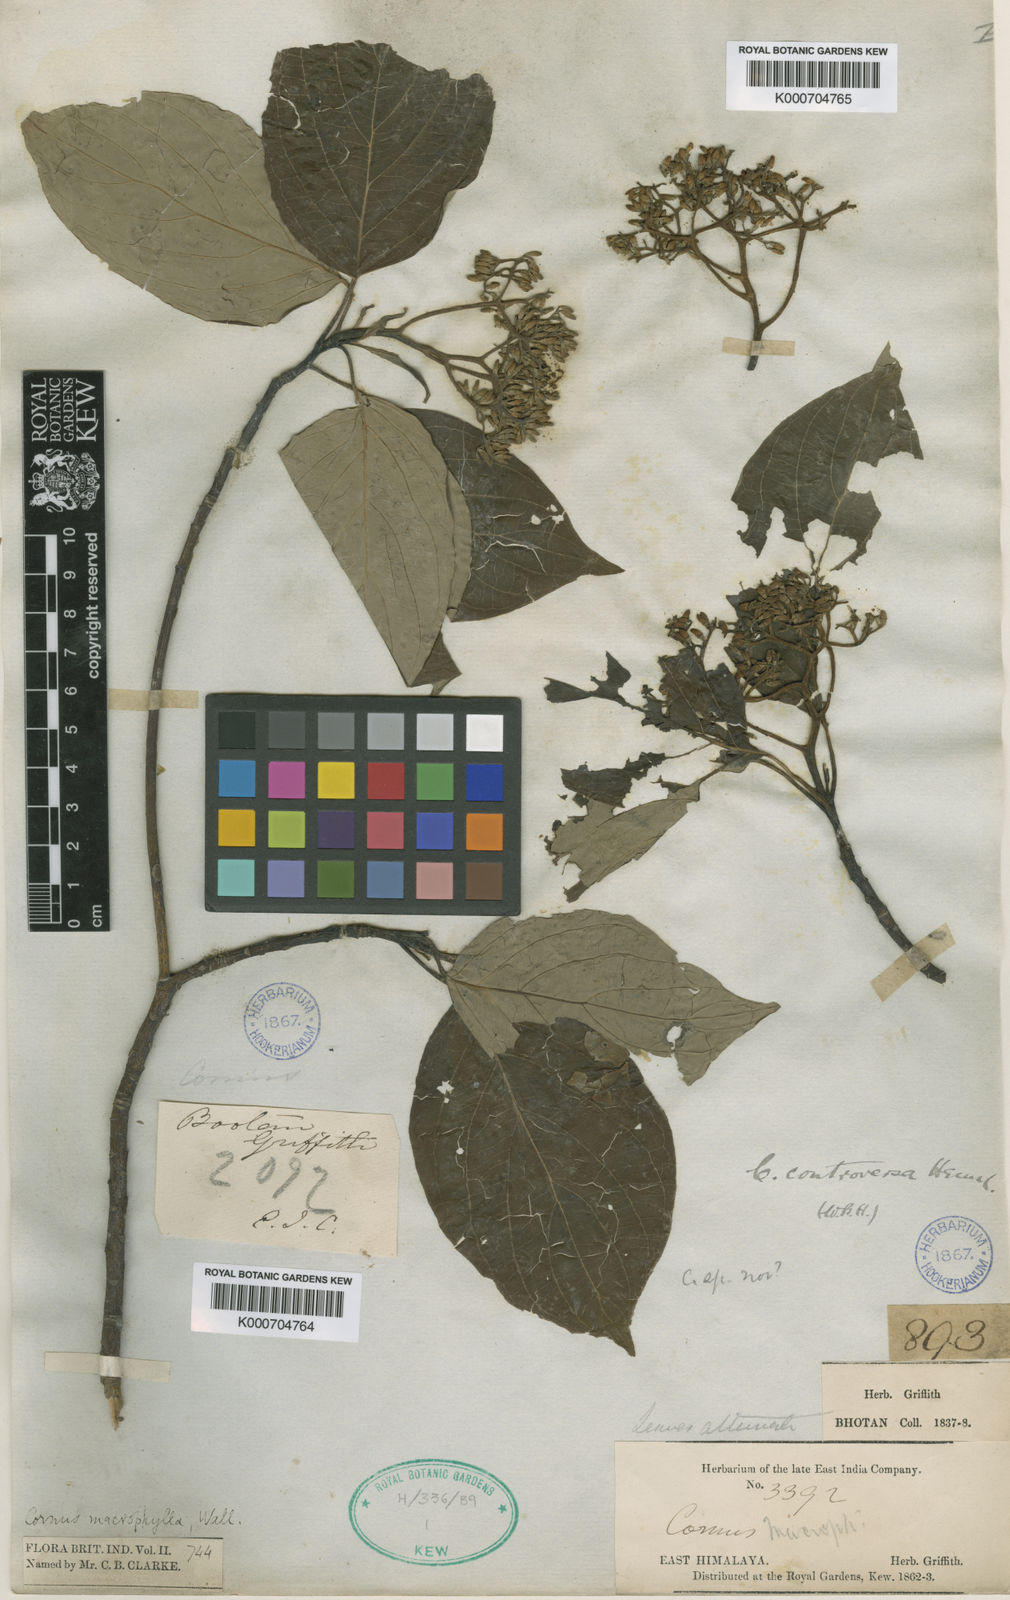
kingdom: Plantae
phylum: Tracheophyta
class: Magnoliopsida
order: Cornales
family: Cornaceae
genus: Cornus
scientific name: Cornus controversa
